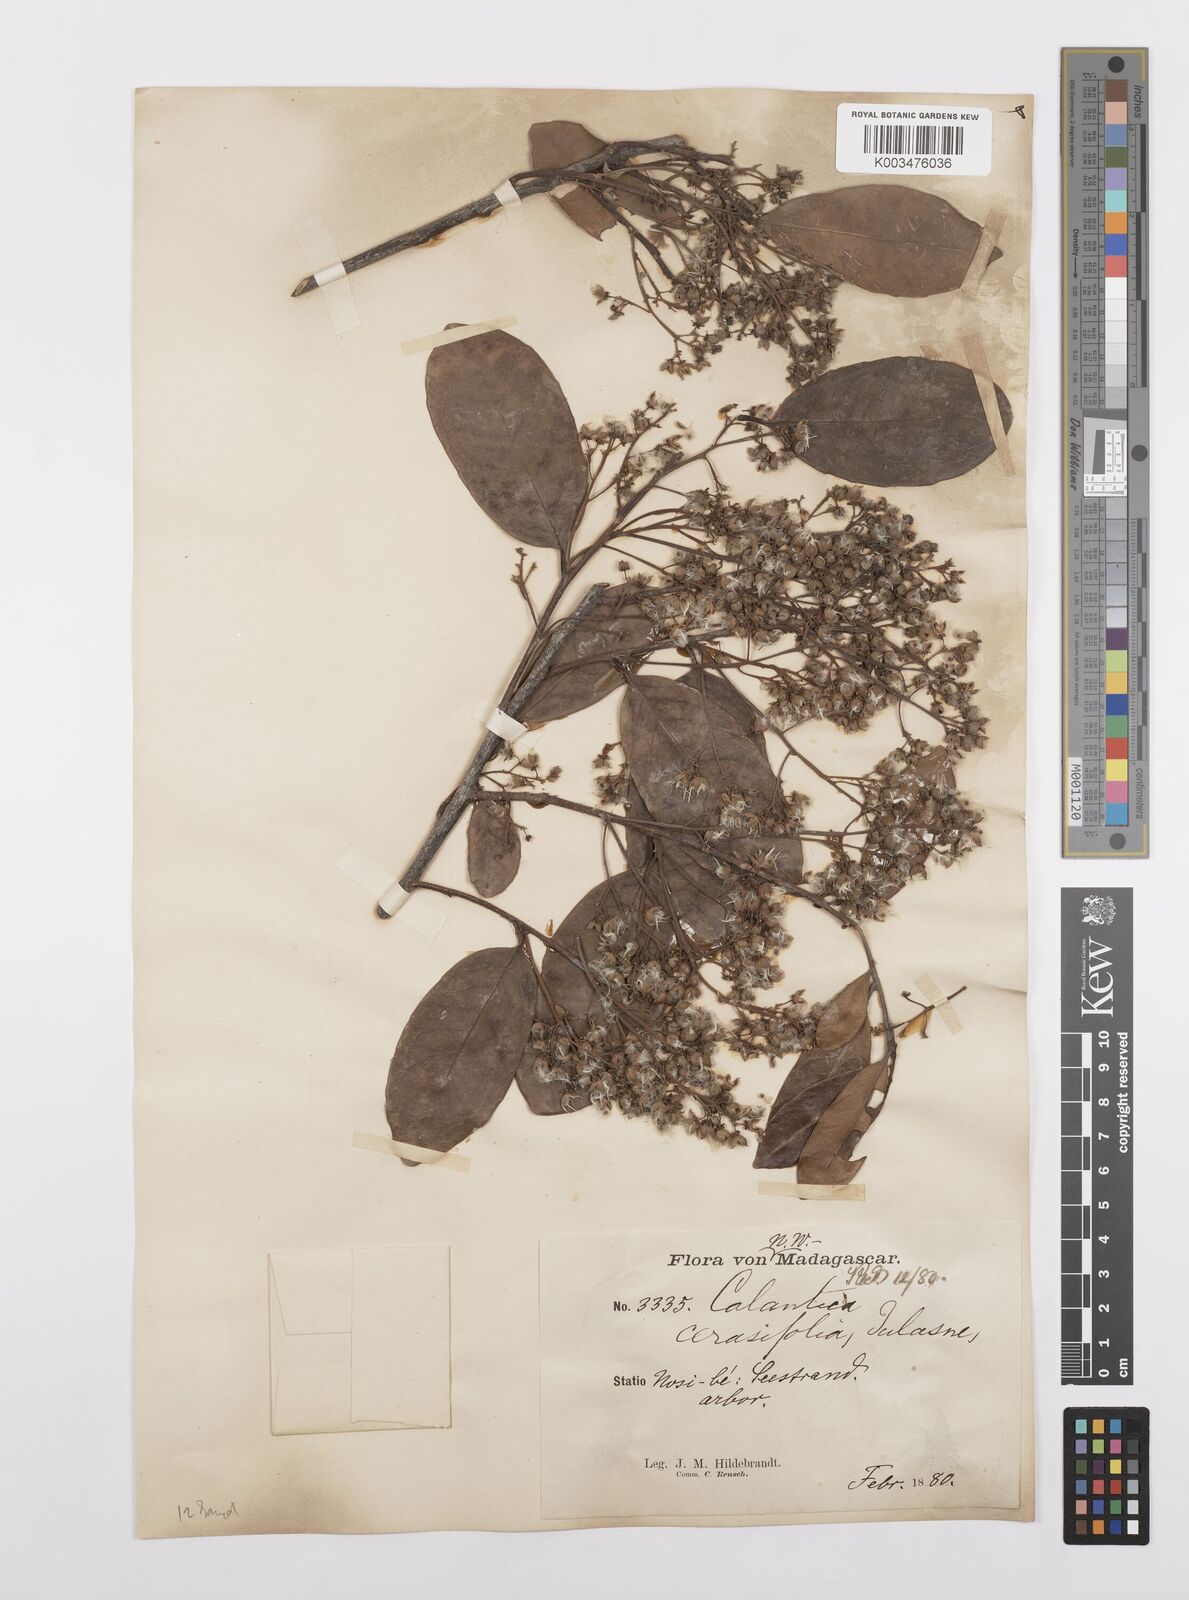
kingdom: Plantae
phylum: Tracheophyta
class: Magnoliopsida
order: Malpighiales
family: Salicaceae
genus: Calantica
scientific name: Calantica cerasifolia
